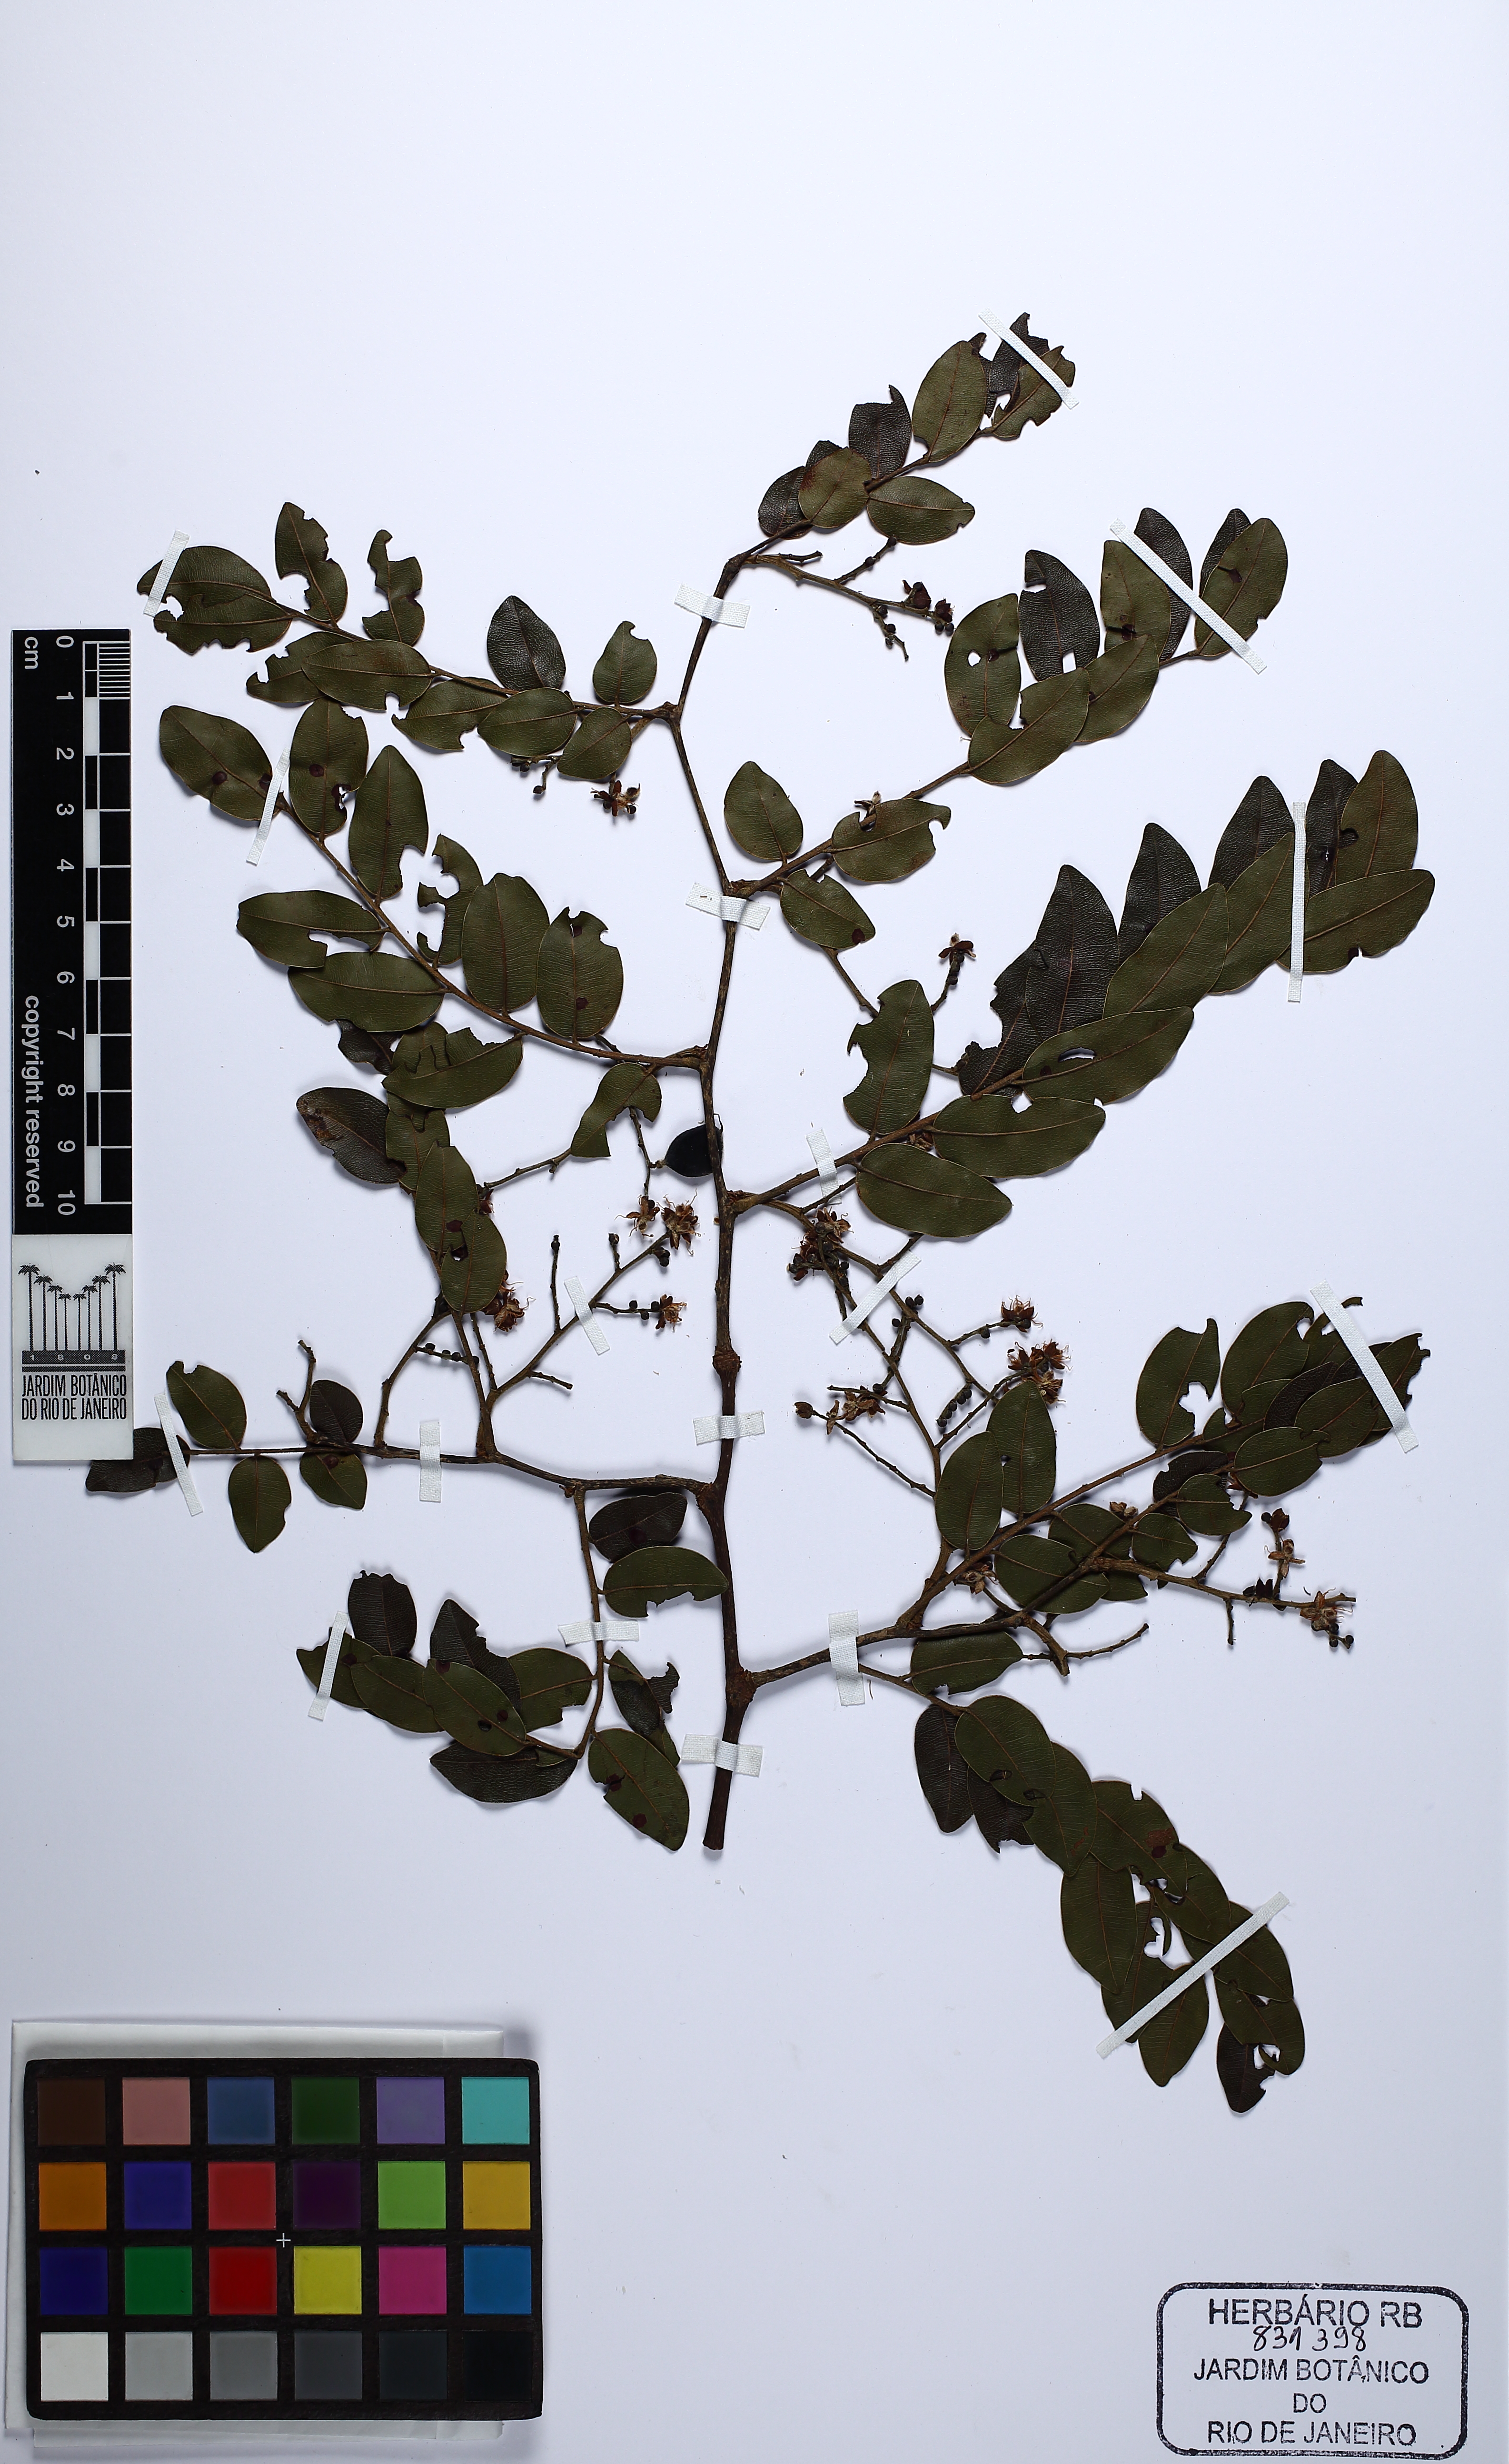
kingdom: Plantae
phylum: Tracheophyta
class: Magnoliopsida
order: Fabales
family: Fabaceae
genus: Copaifera
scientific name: Copaifera majorina
